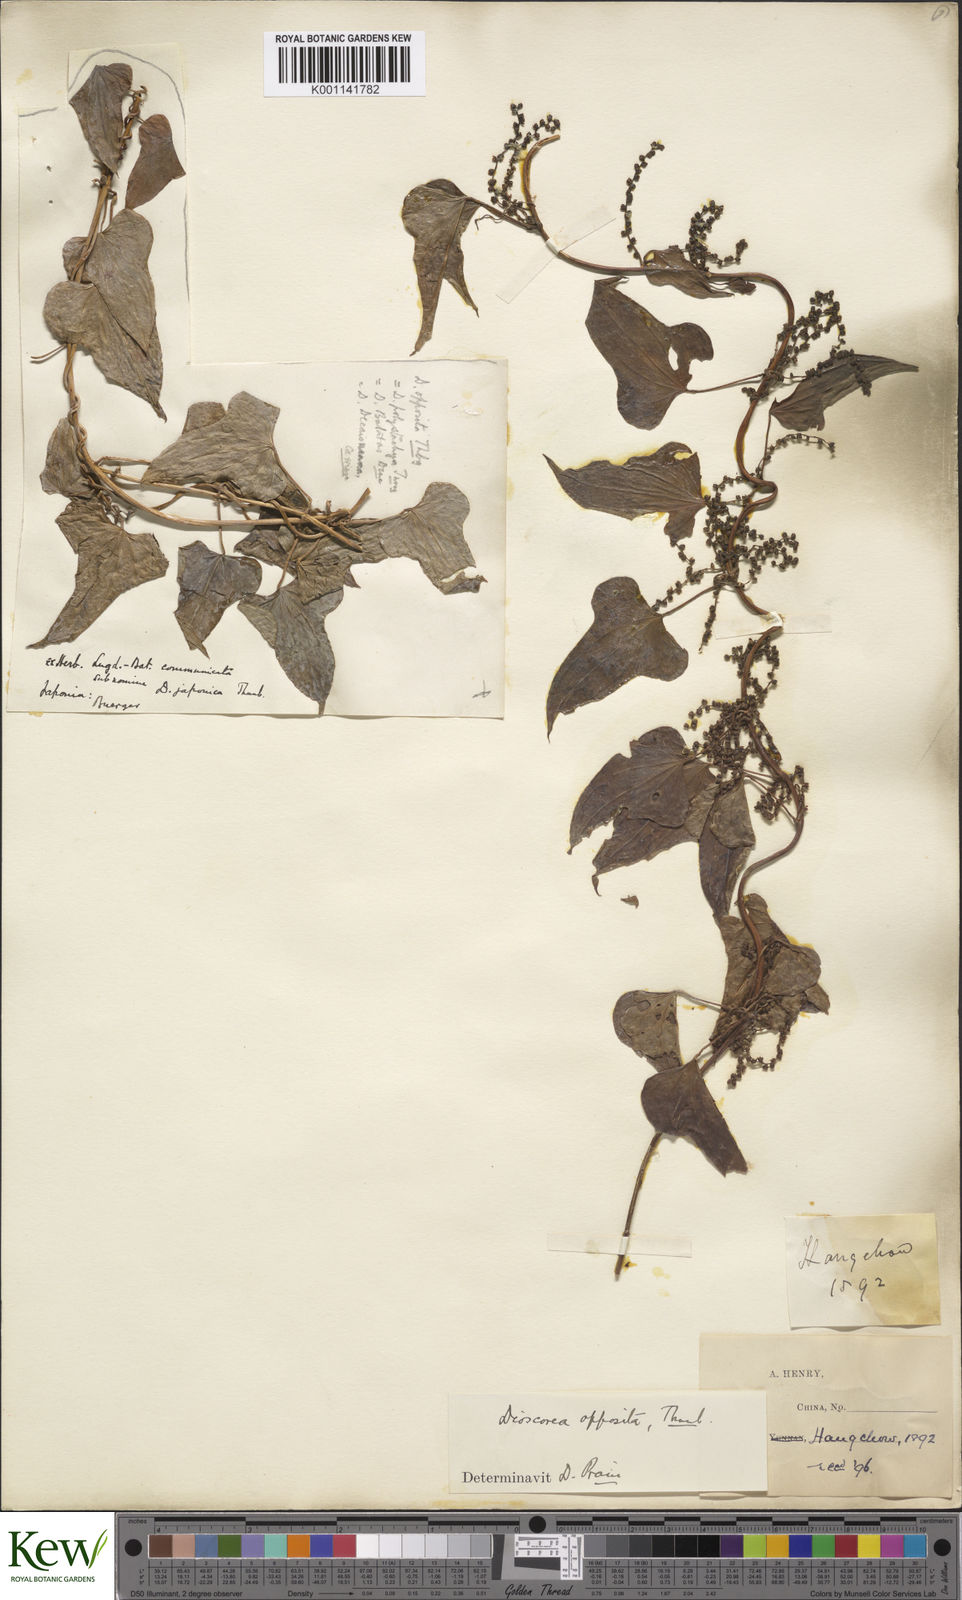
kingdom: Plantae
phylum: Tracheophyta
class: Liliopsida
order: Dioscoreales
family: Dioscoreaceae
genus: Dioscorea
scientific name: Dioscorea oppositifolia
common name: Chinese yam
